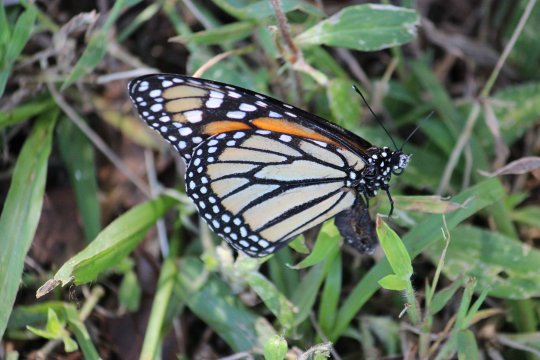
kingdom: Animalia
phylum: Arthropoda
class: Insecta
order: Lepidoptera
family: Nymphalidae
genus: Danaus
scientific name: Danaus plexippus
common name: Monarch
